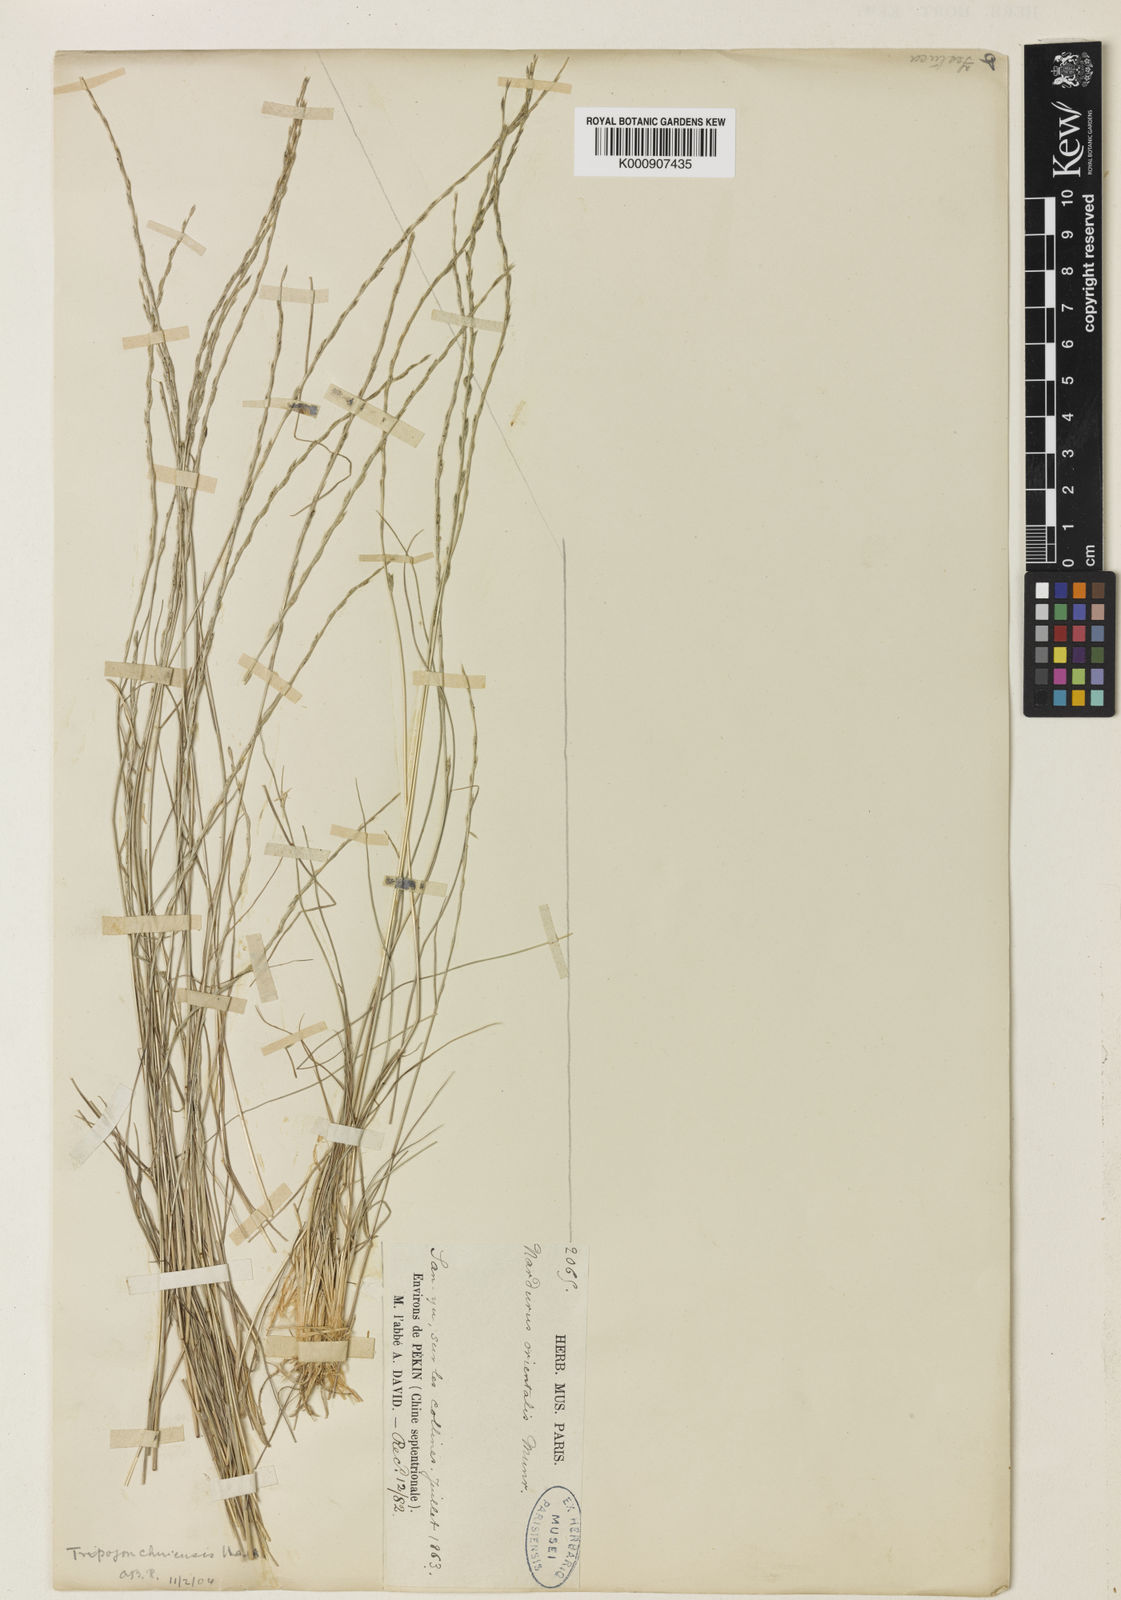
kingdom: Plantae
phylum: Tracheophyta
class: Liliopsida
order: Poales
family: Poaceae
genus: Tripogon
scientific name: Tripogon chinensis
